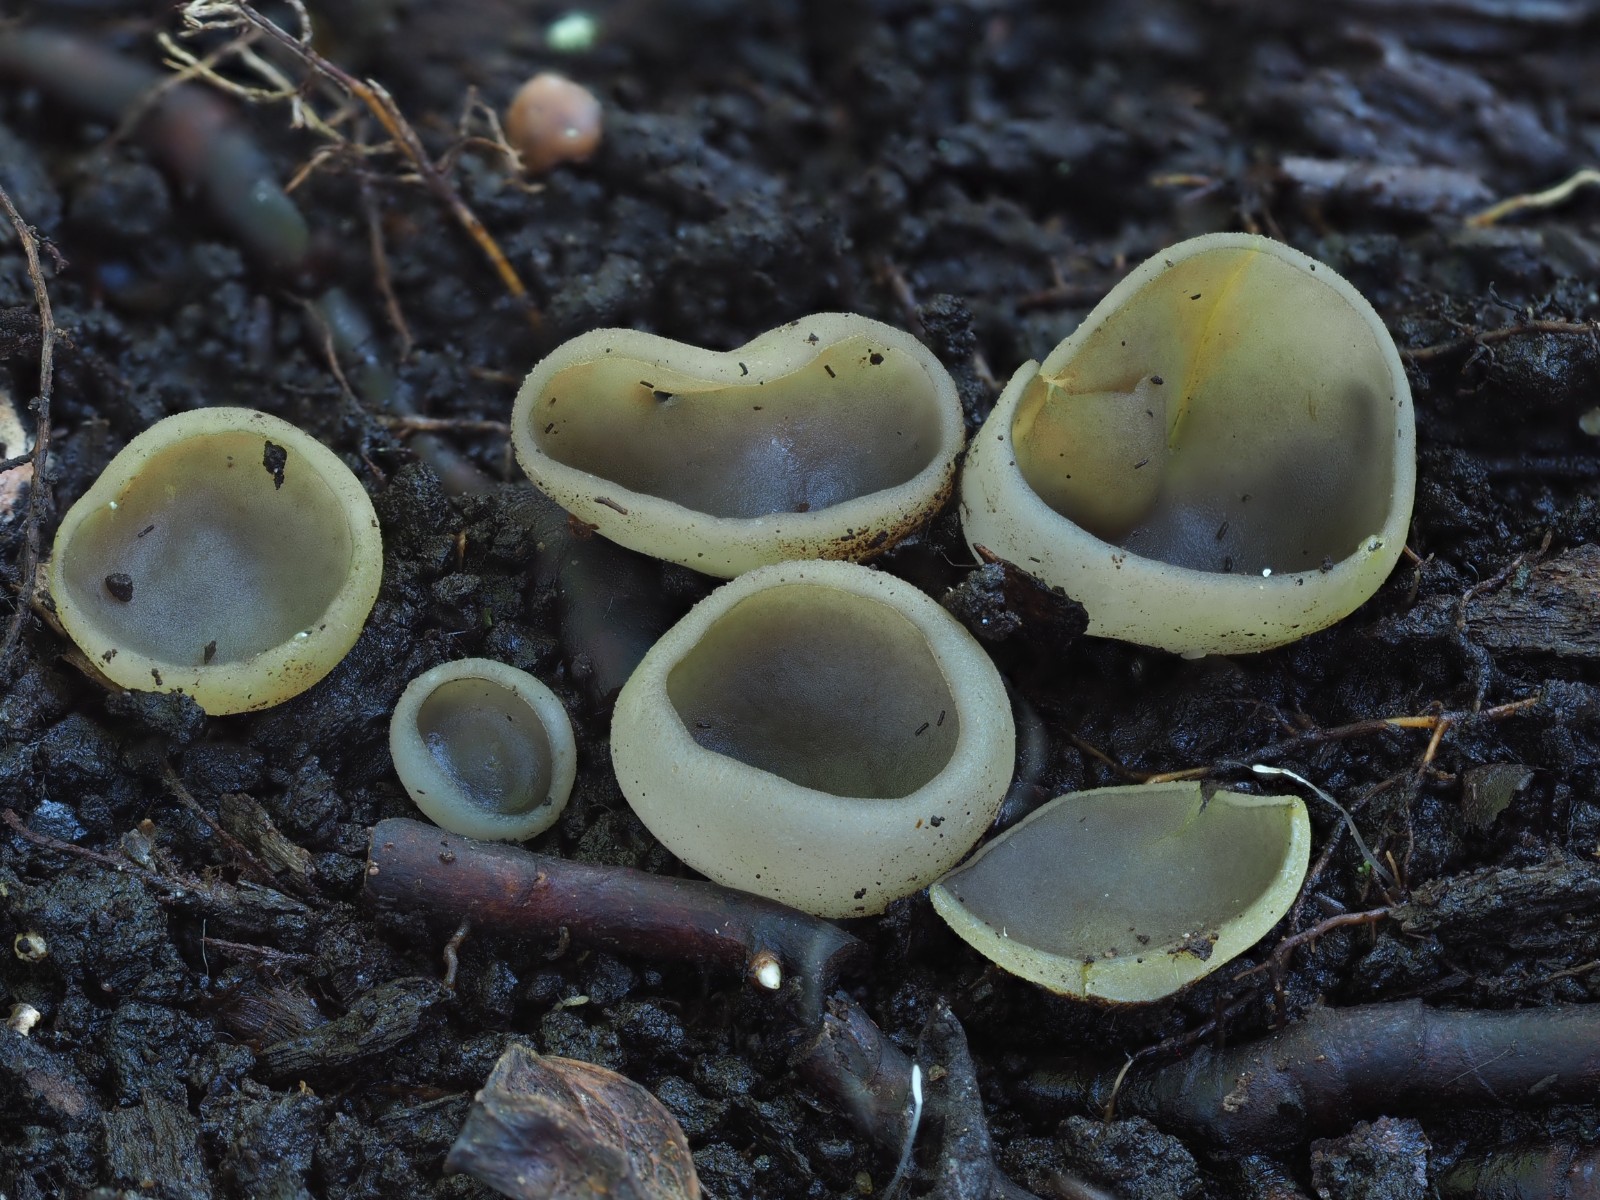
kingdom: Fungi
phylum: Ascomycota
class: Pezizomycetes
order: Pezizales
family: Pezizaceae
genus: Paragalactinia
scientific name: Paragalactinia succosella
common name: gulnende bægersvamp
